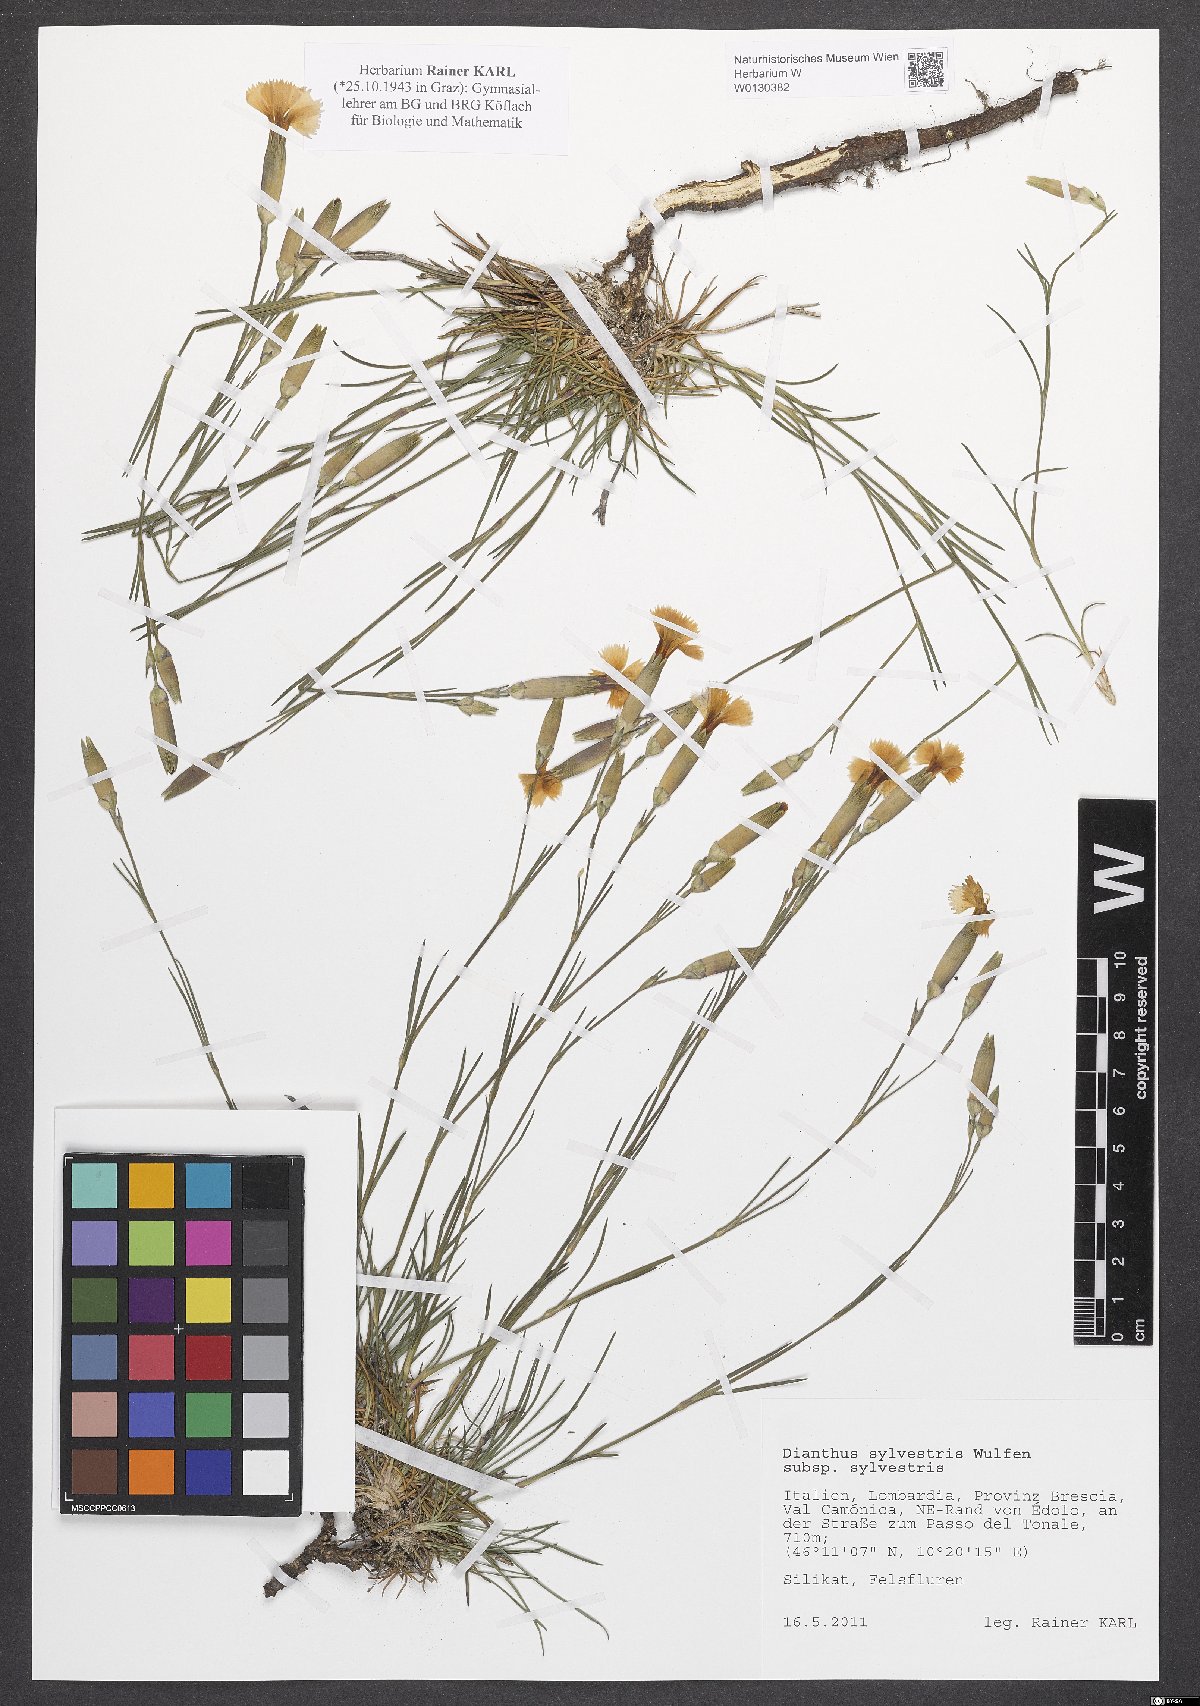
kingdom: Plantae
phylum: Tracheophyta
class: Magnoliopsida
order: Caryophyllales
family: Caryophyllaceae
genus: Dianthus
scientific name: Dianthus sylvestris
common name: Wood pink
